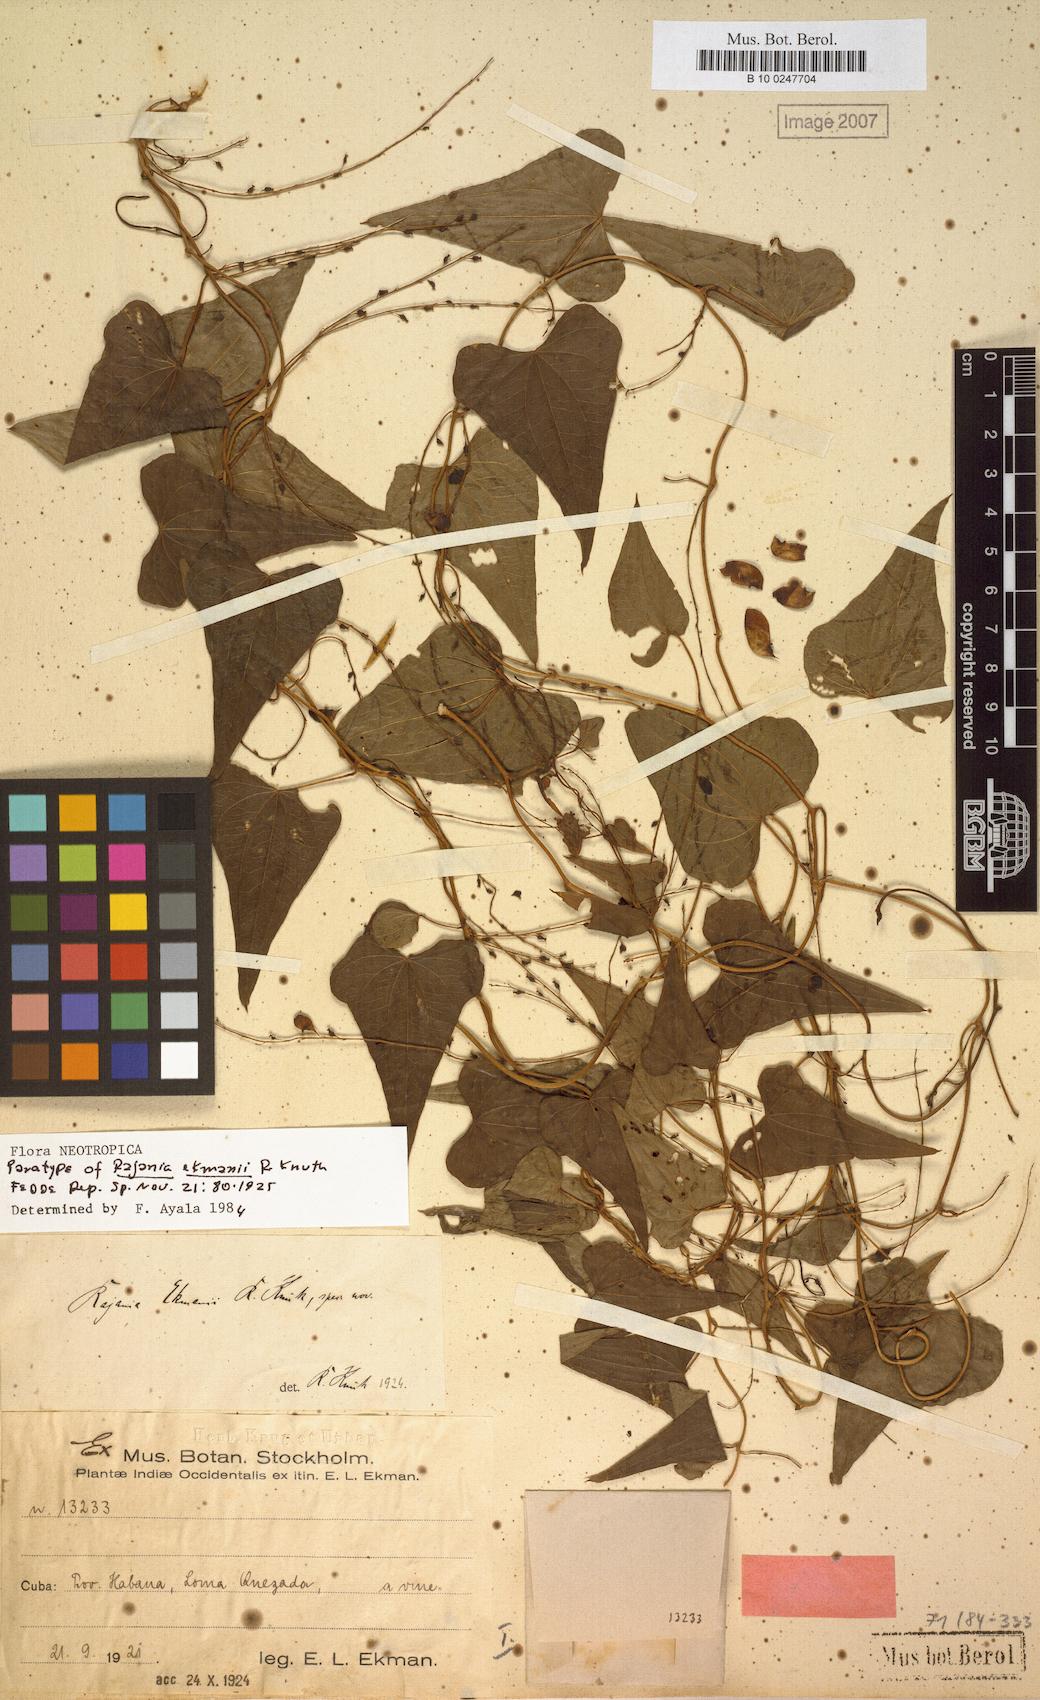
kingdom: Plantae
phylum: Tracheophyta
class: Liliopsida
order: Dioscoreales
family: Dioscoreaceae
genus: Dioscorea
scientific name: Dioscorea scorpioidea
